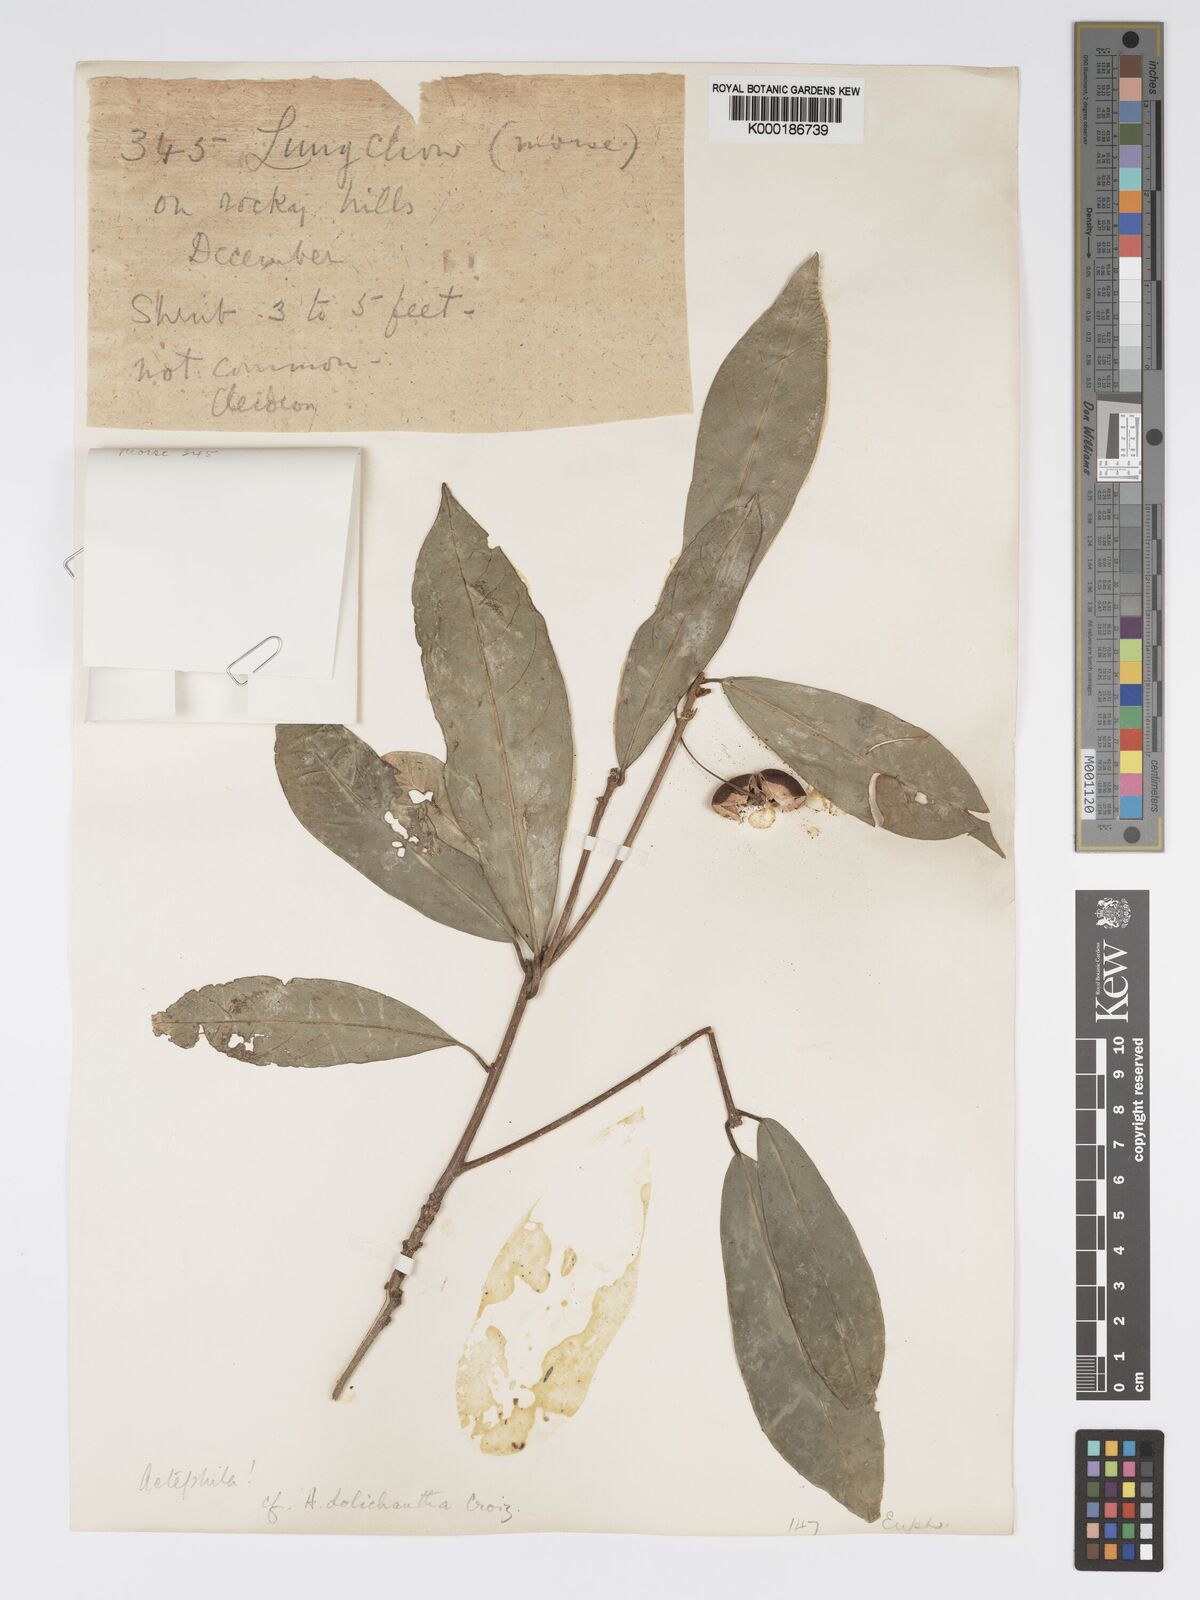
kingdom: Plantae
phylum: Tracheophyta
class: Magnoliopsida
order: Malpighiales
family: Phyllanthaceae
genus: Actephila
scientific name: Actephila excelsa
